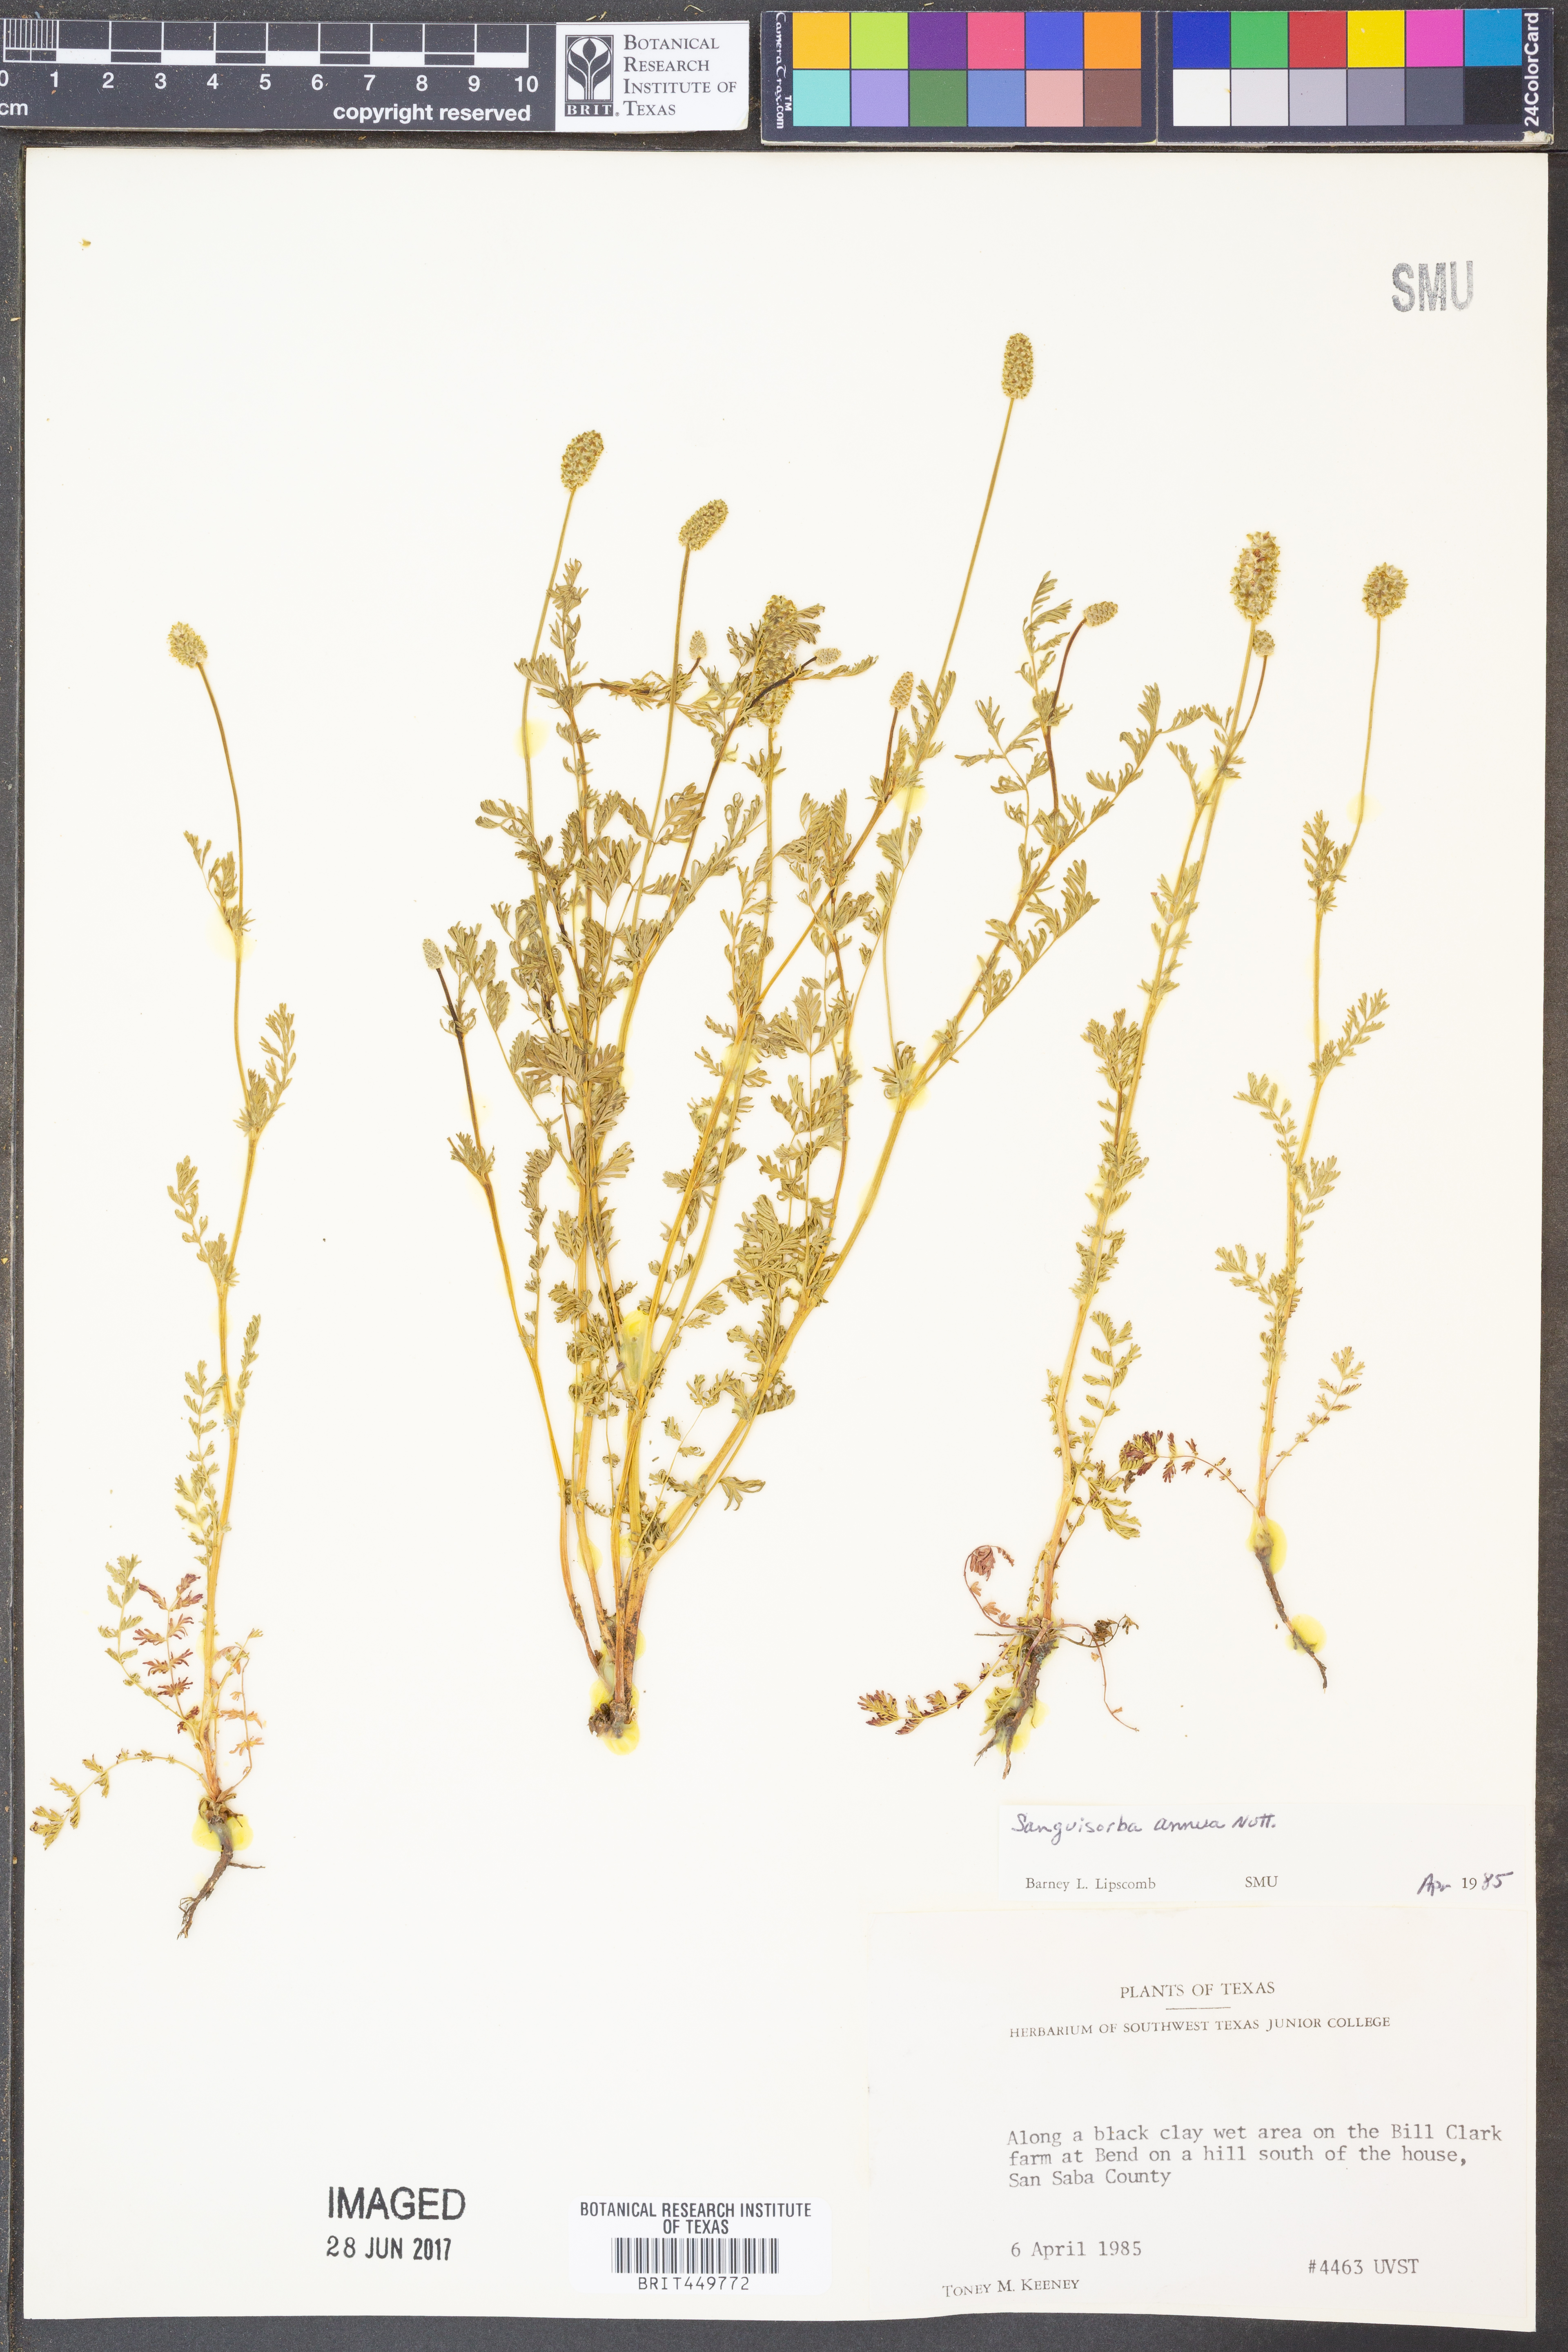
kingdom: Plantae
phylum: Tracheophyta
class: Magnoliopsida
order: Rosales
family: Rosaceae
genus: Poteridium
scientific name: Poteridium annuum
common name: Annual burnet
